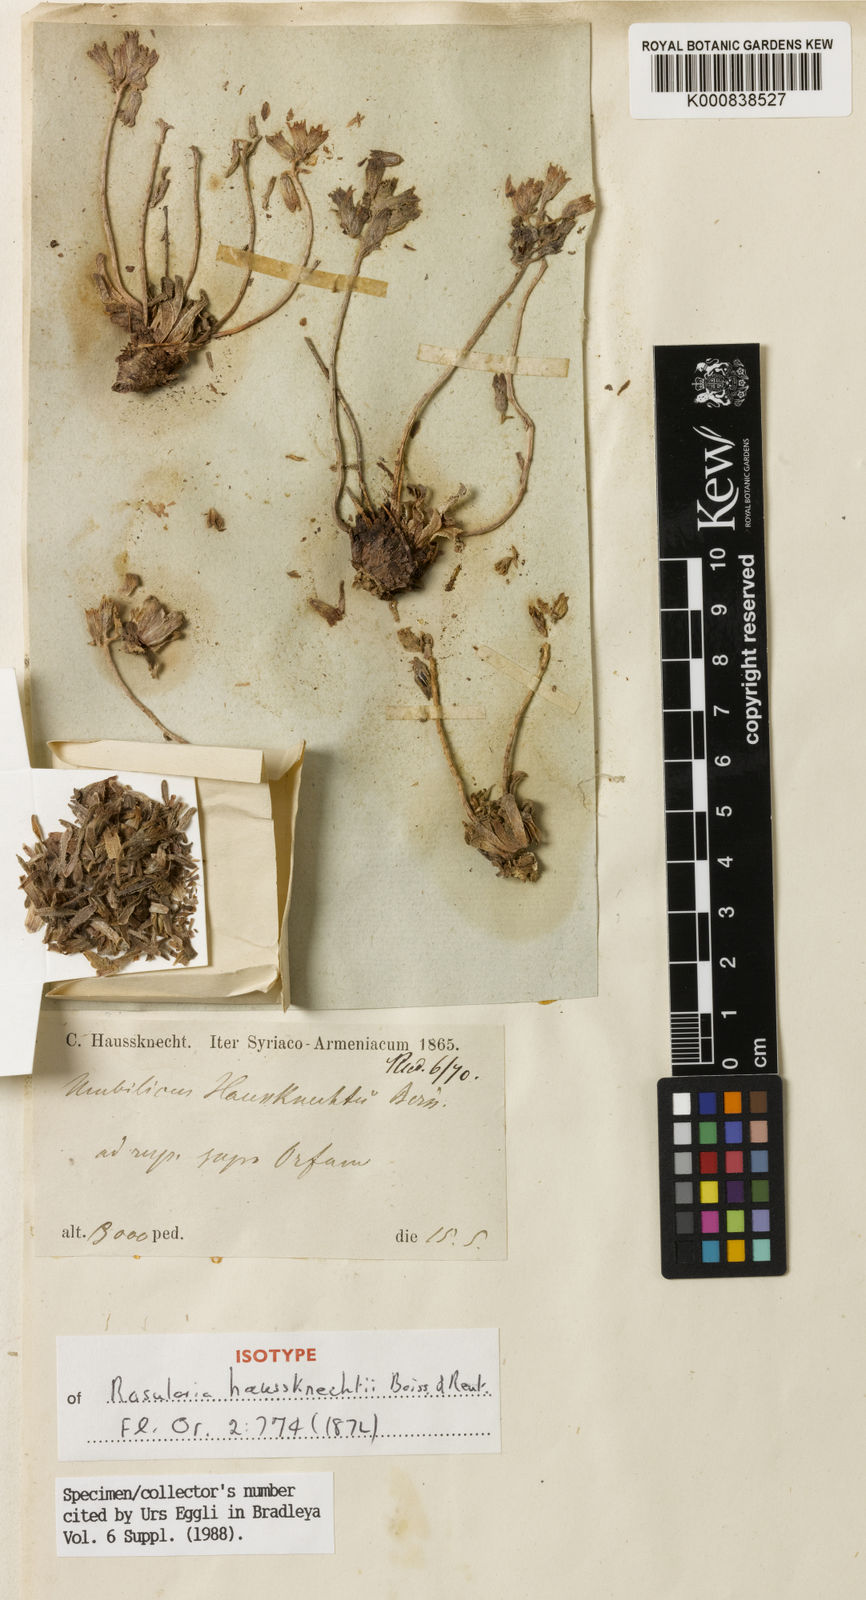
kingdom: Plantae
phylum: Tracheophyta
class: Magnoliopsida
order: Saxifragales
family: Crassulaceae
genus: Rosularia
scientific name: Rosularia haussknechtii
